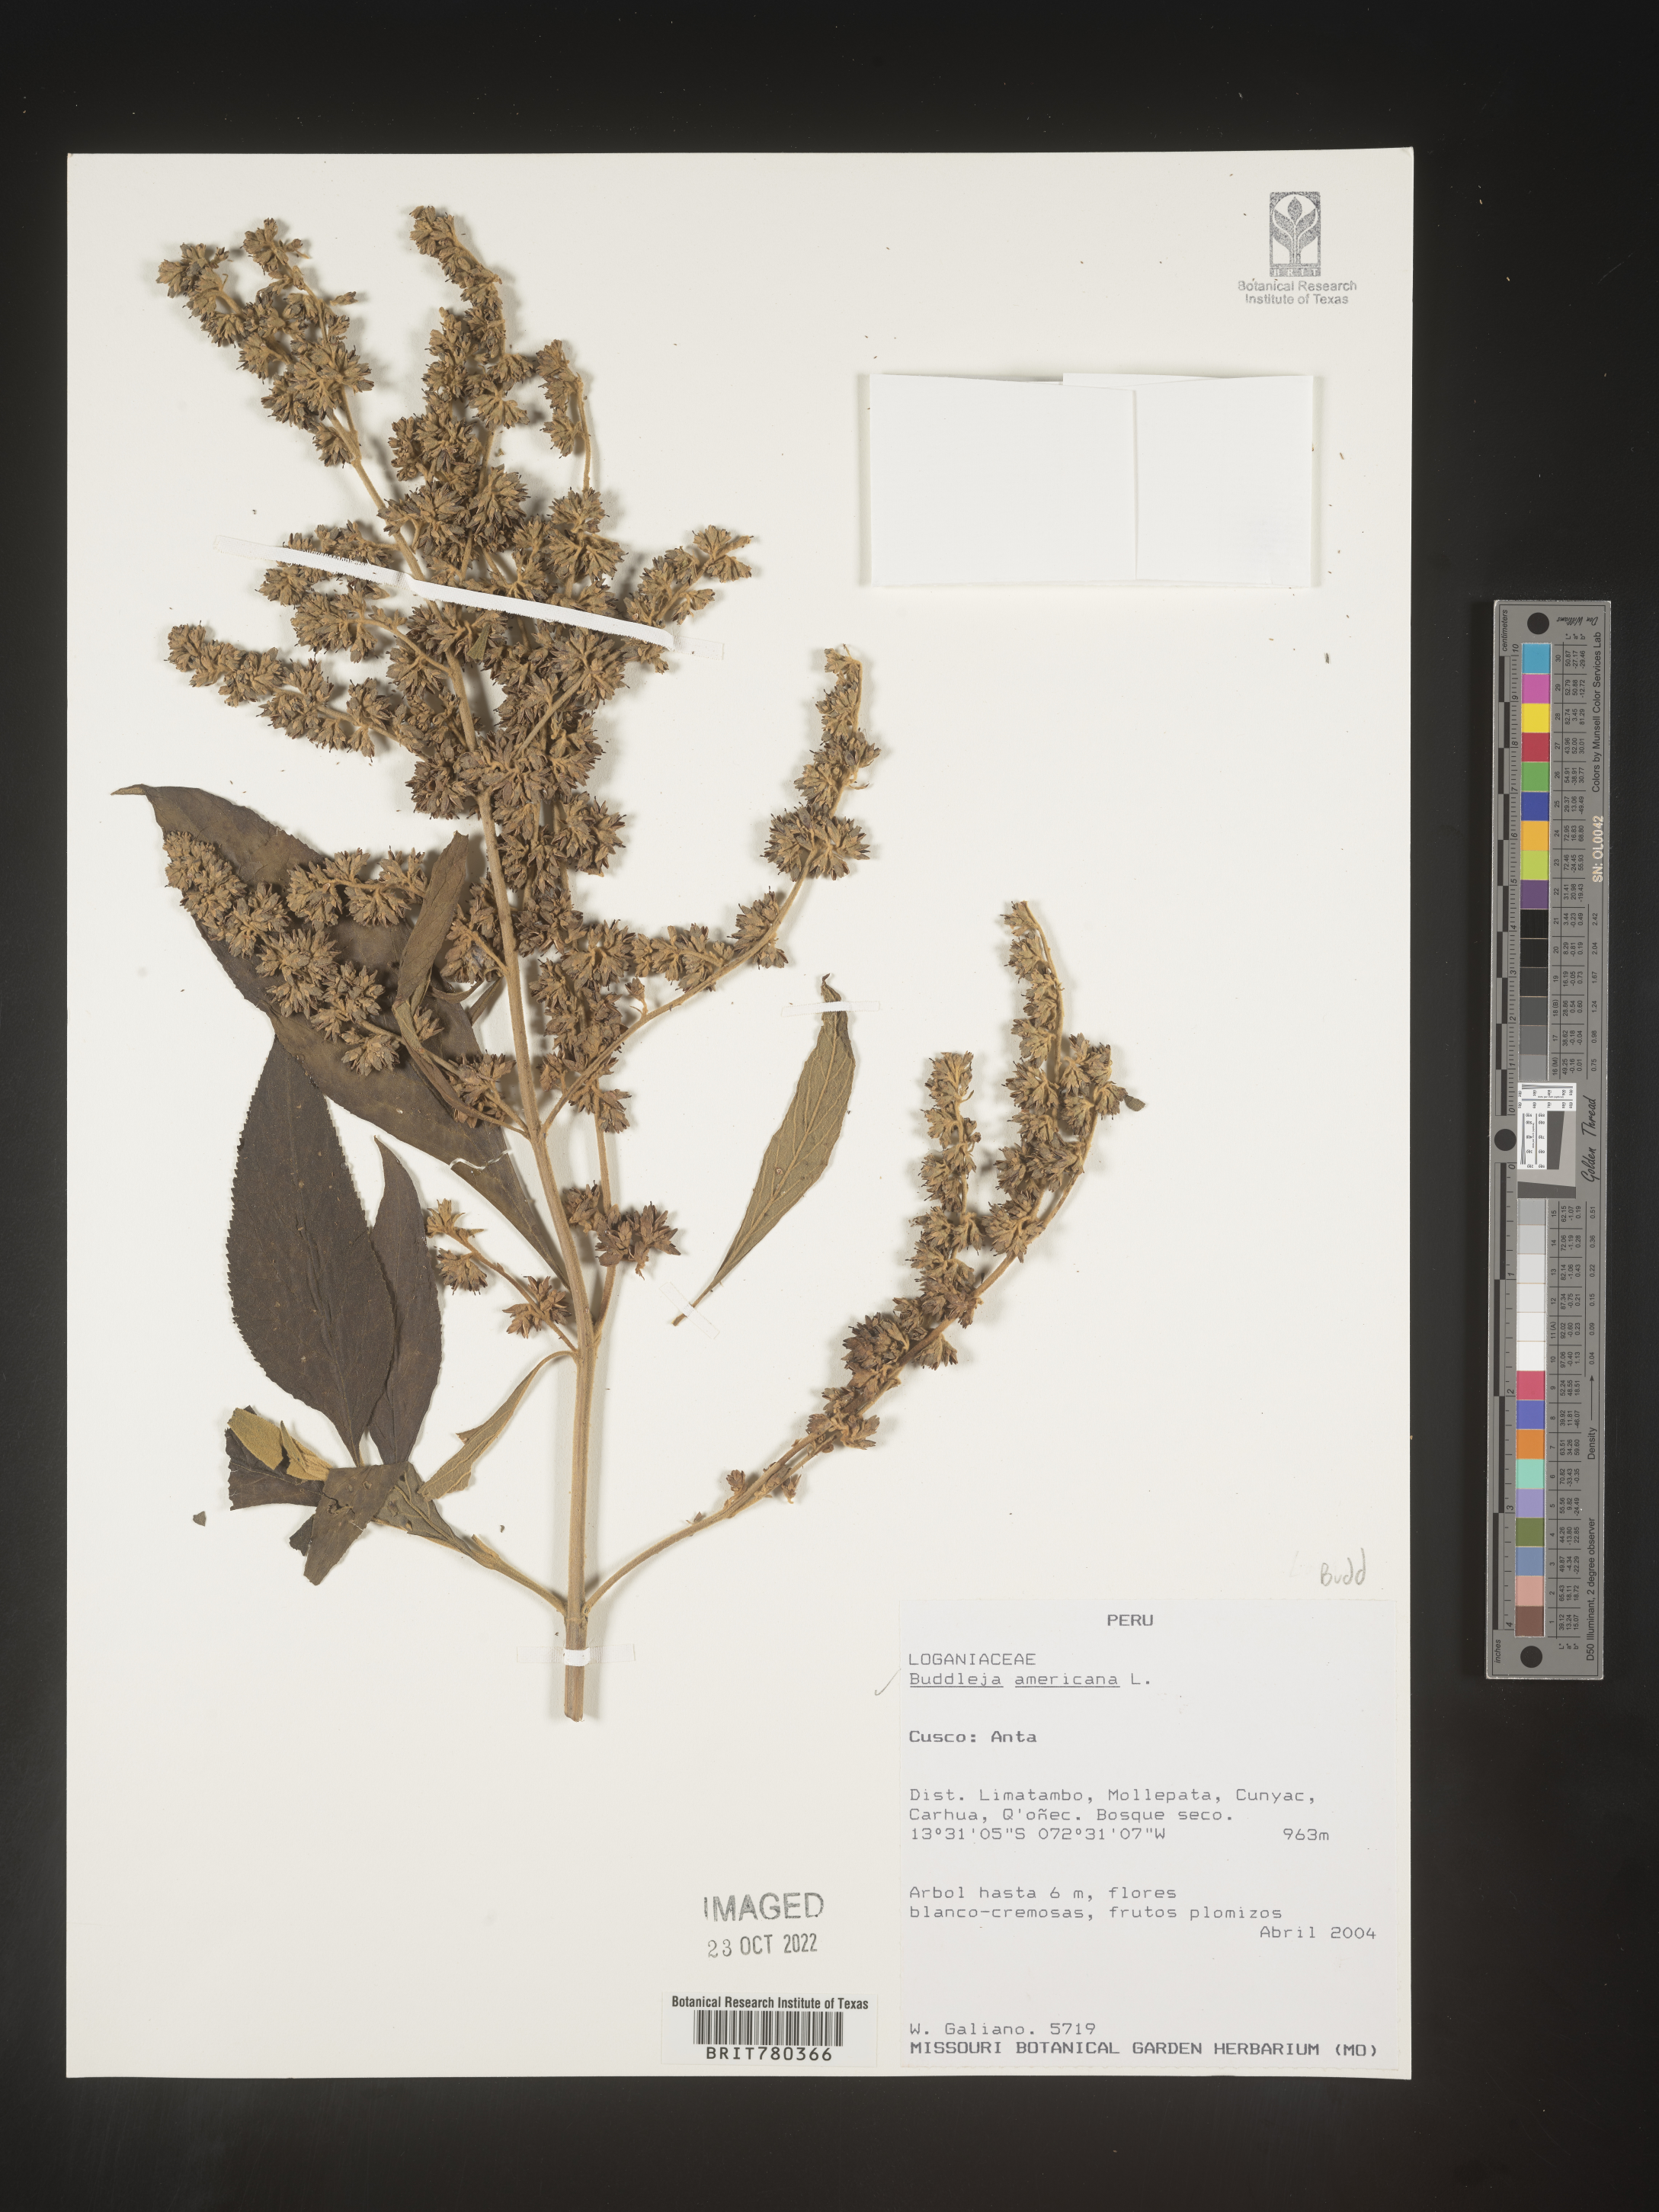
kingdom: Plantae
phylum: Tracheophyta
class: Magnoliopsida
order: Lamiales
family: Scrophulariaceae
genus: Buddleja
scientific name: Buddleja
